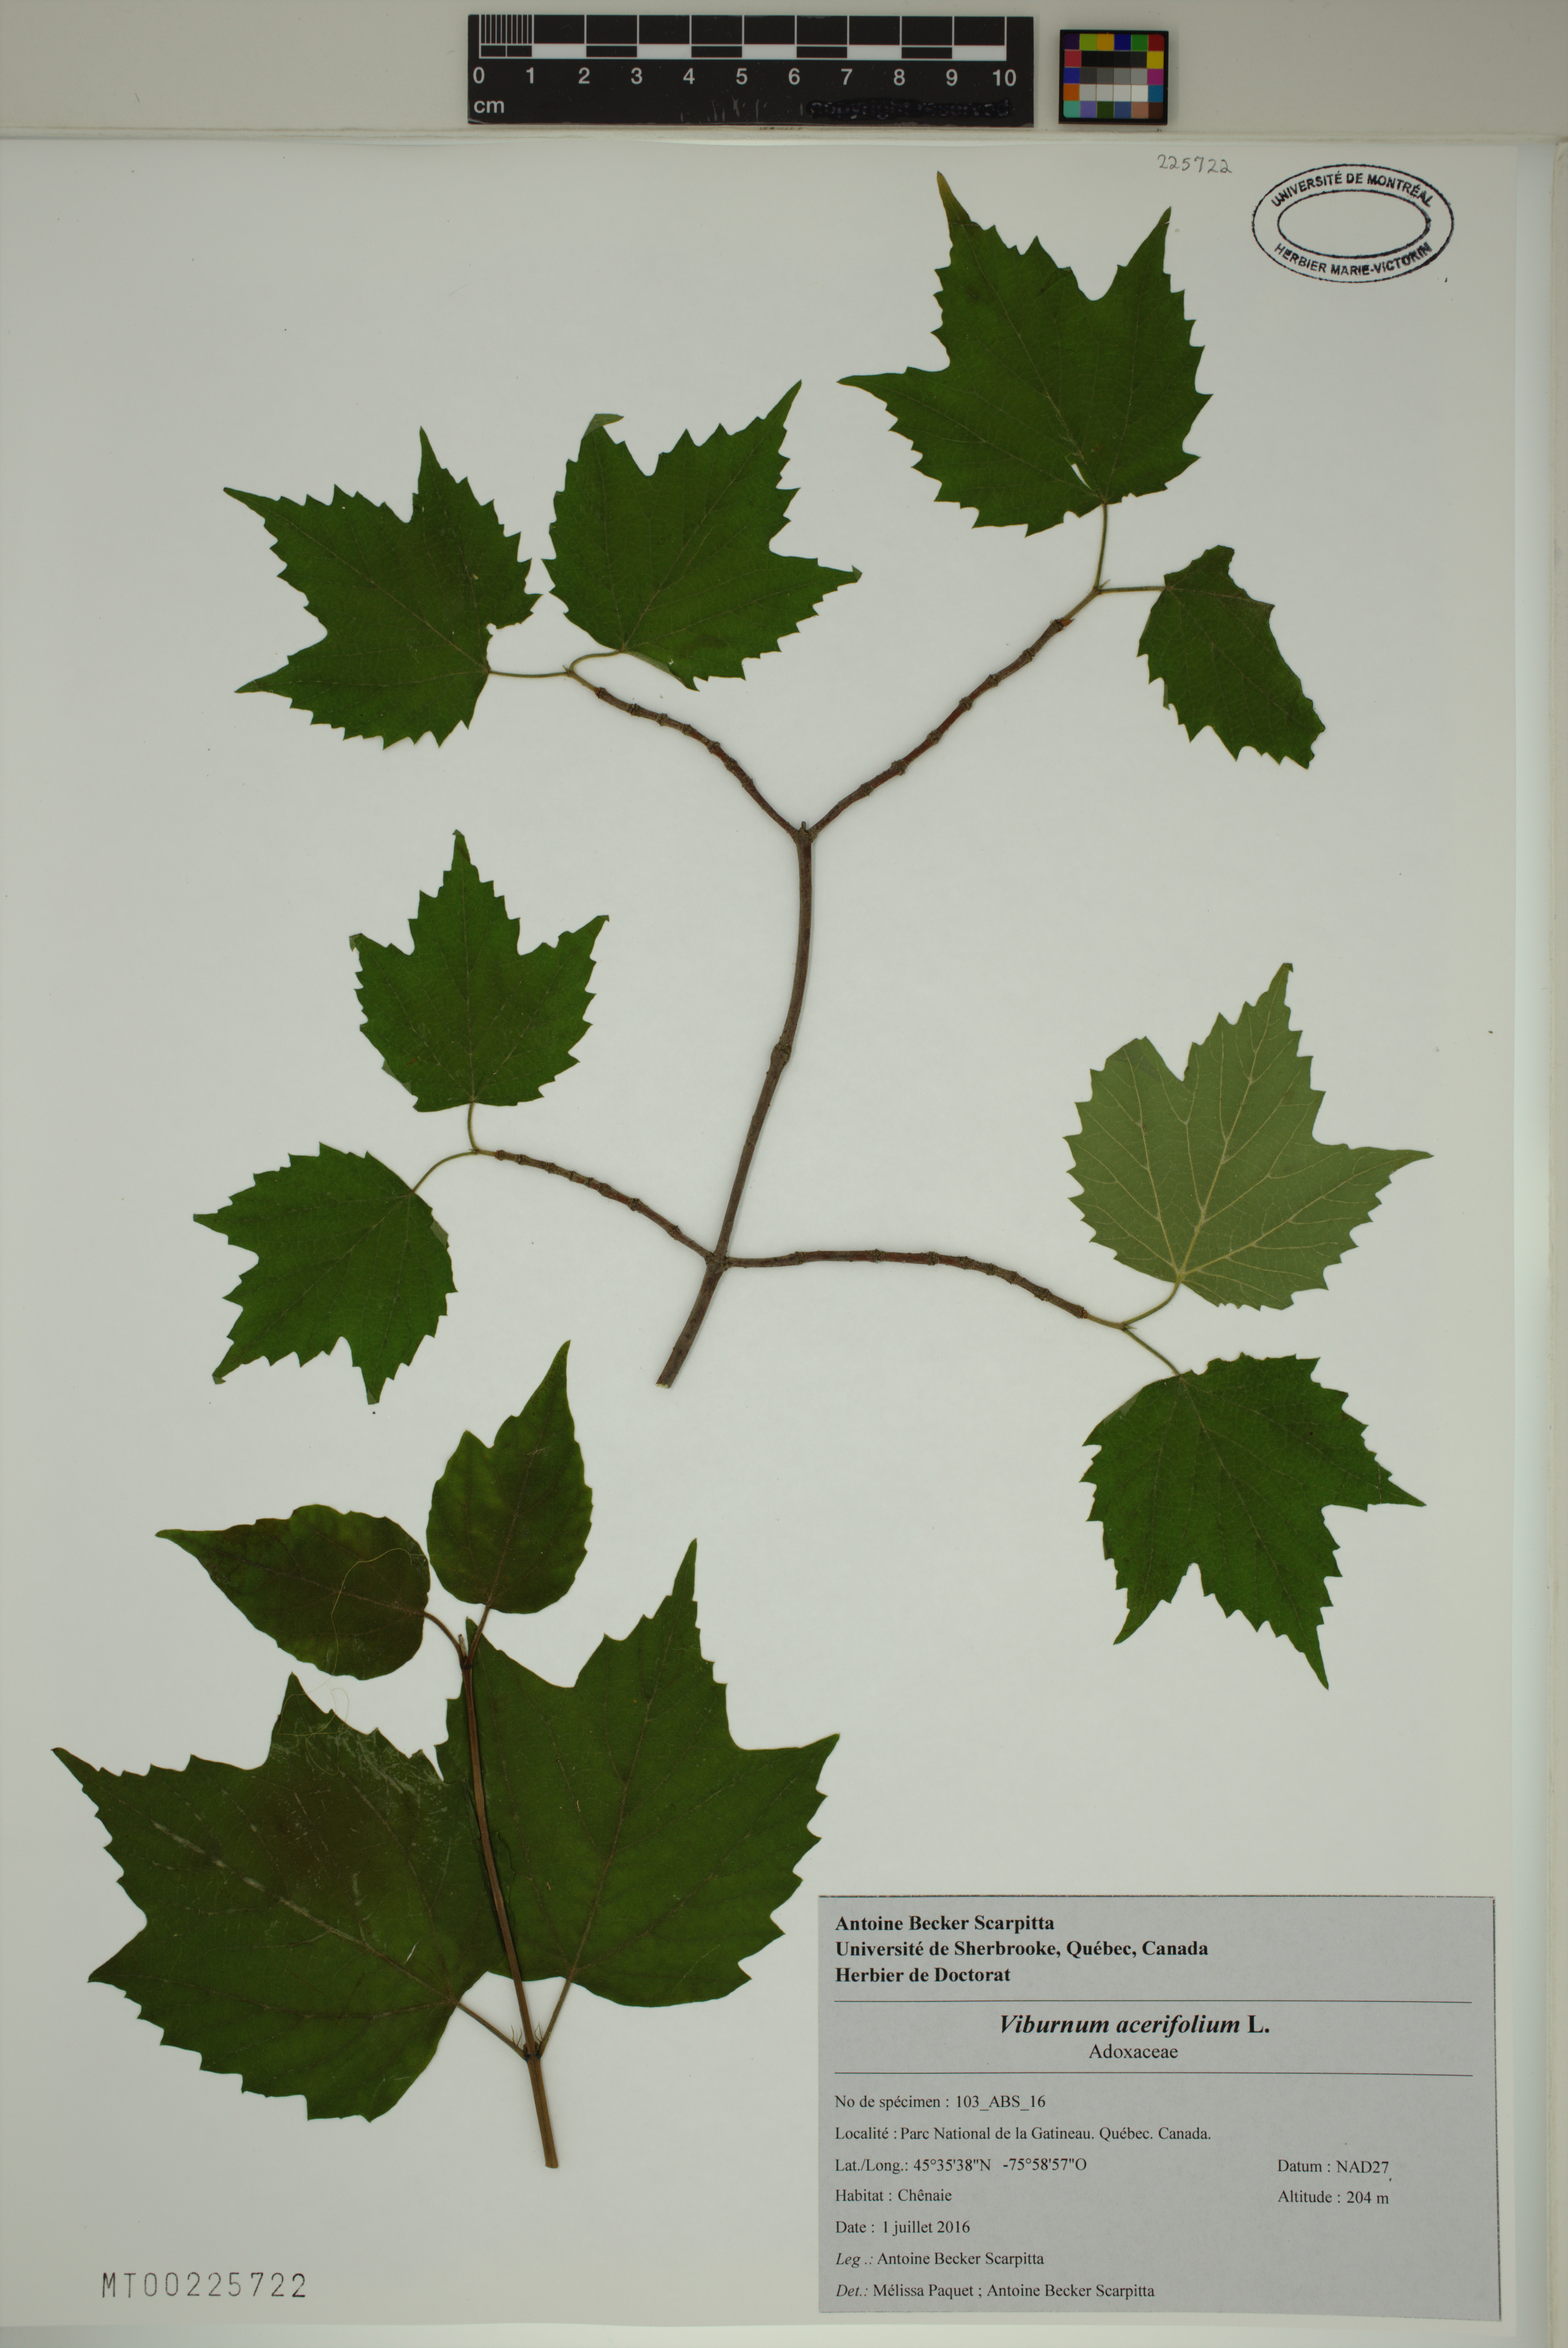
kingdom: Plantae
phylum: Tracheophyta
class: Magnoliopsida
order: Dipsacales
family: Viburnaceae
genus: Viburnum
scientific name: Viburnum acerifolium
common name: Dockmackie
